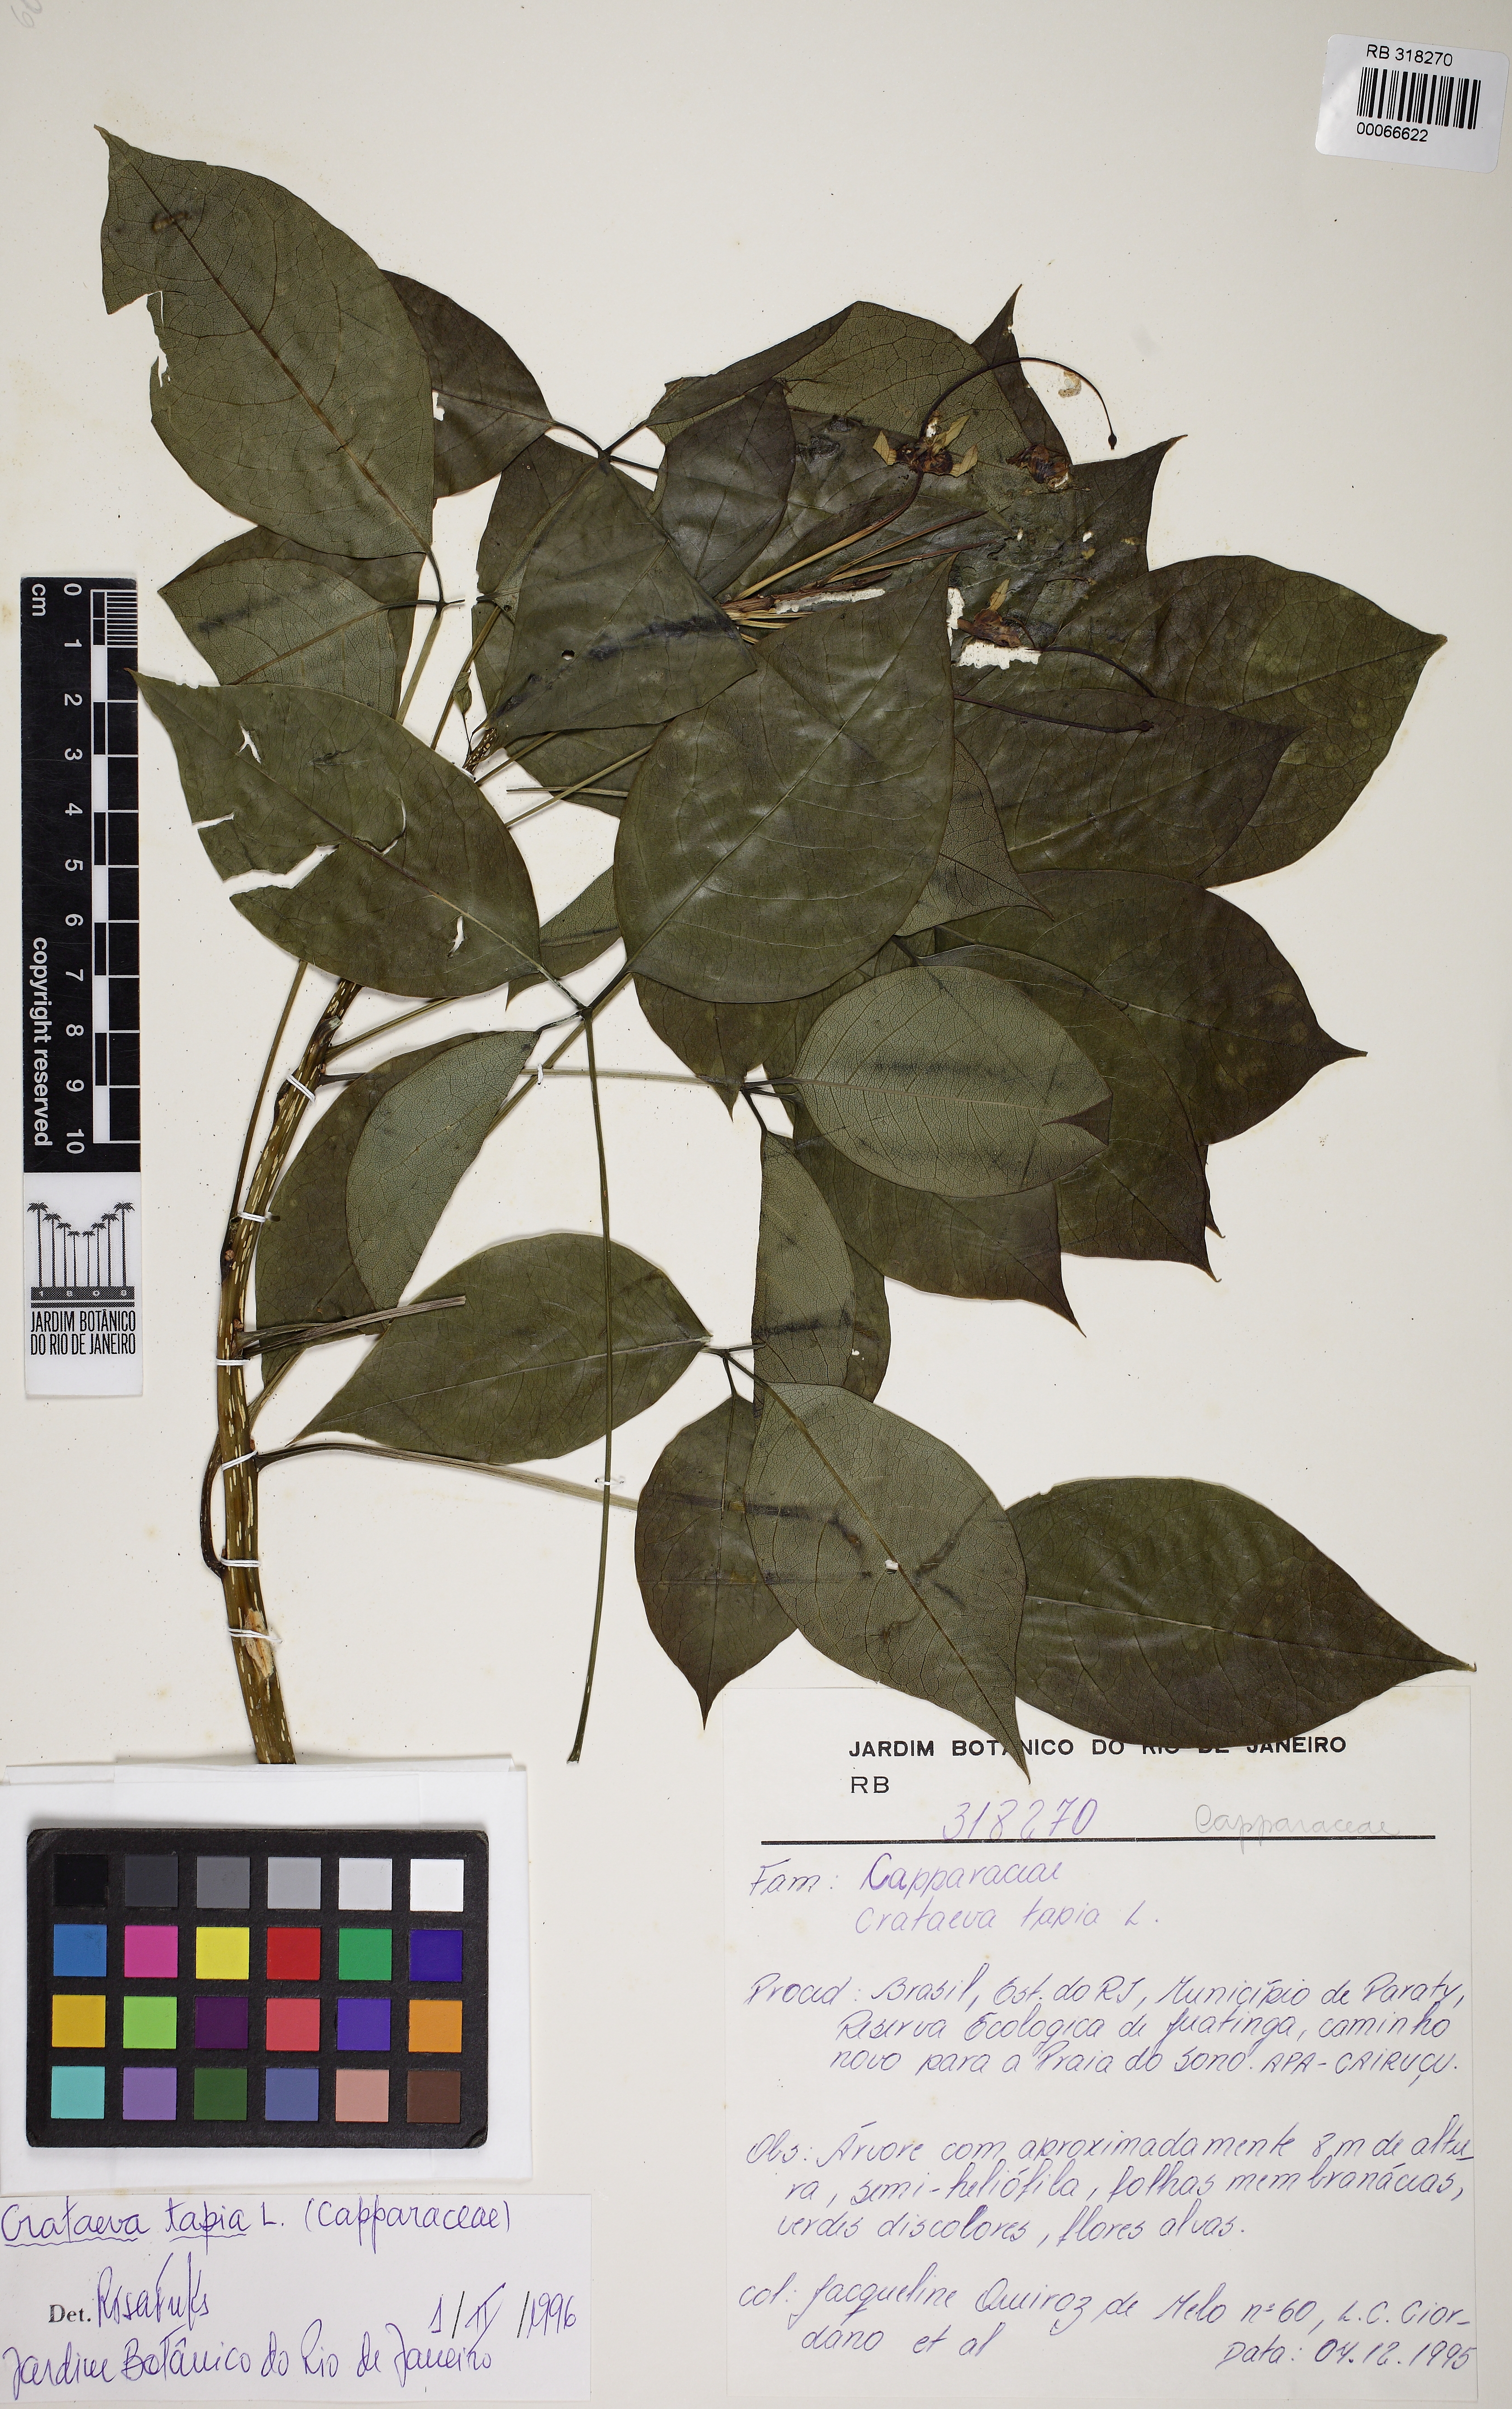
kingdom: Plantae
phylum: Tracheophyta
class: Magnoliopsida
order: Brassicales
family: Capparaceae
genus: Crateva
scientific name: Crateva tapia
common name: Garlic-pear
